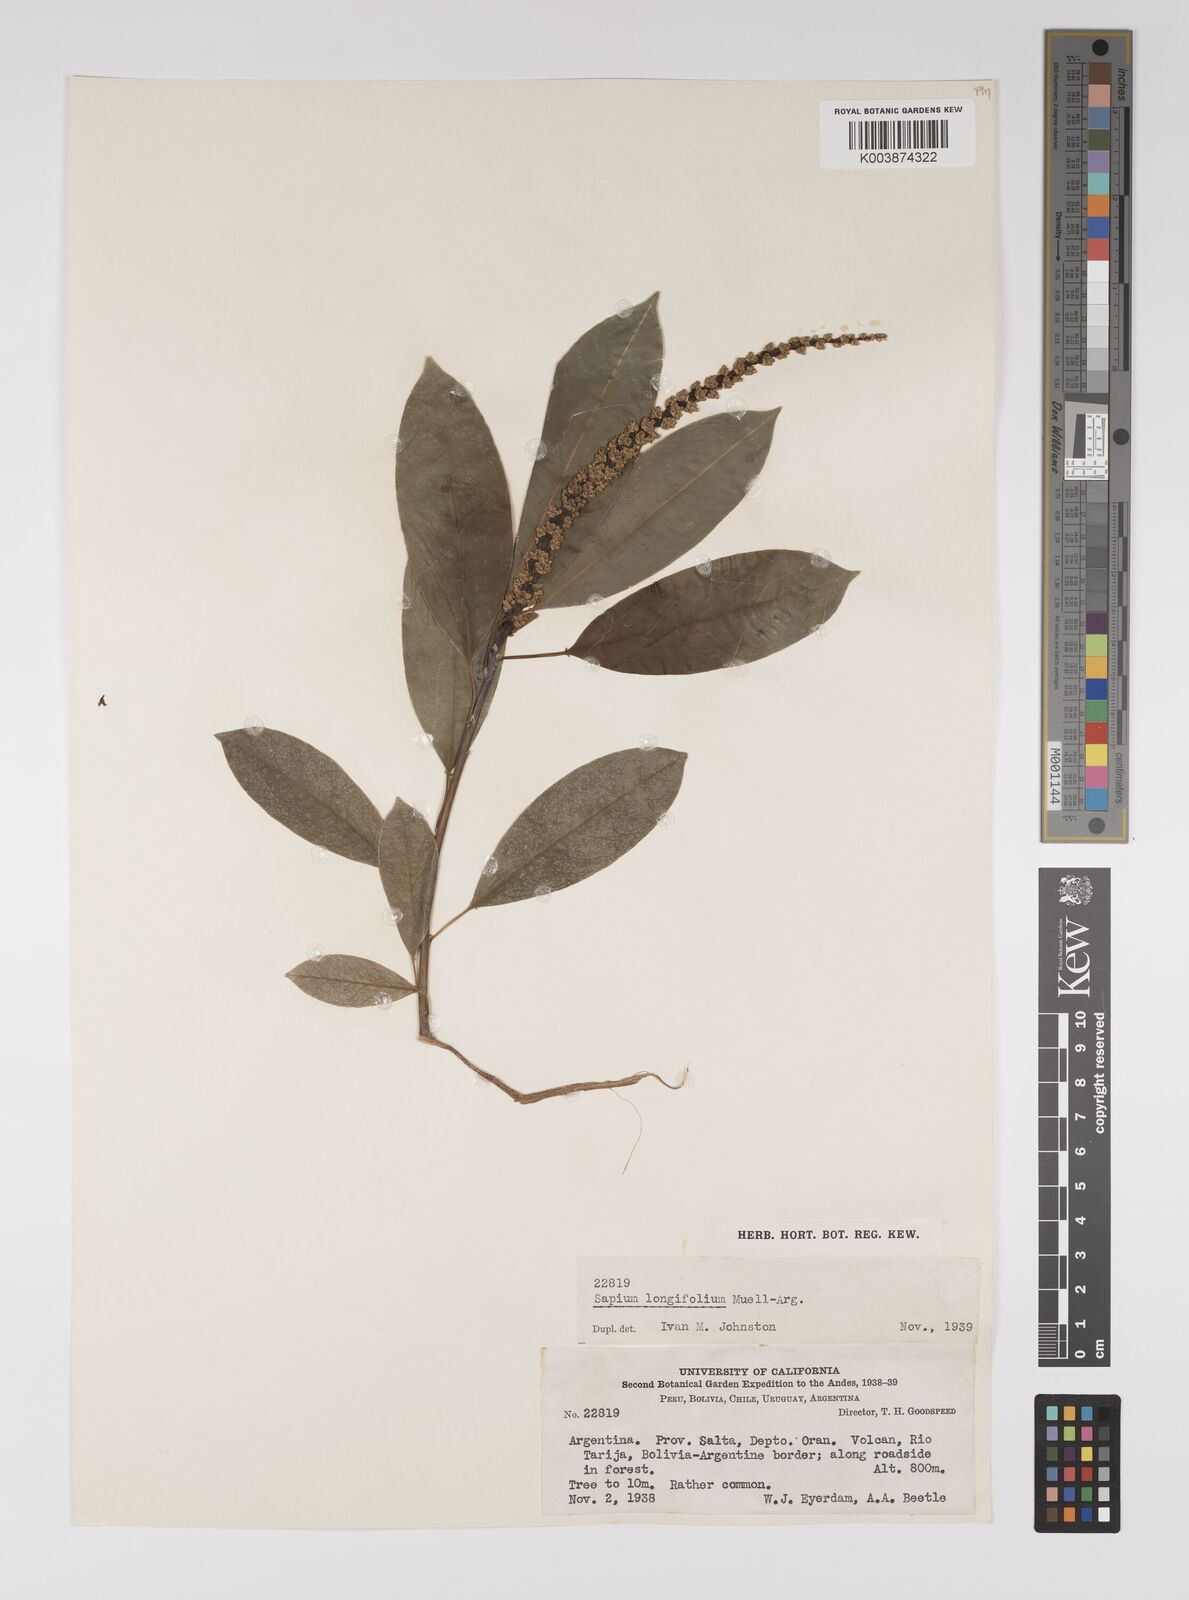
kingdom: Plantae
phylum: Tracheophyta
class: Magnoliopsida
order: Malpighiales
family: Euphorbiaceae
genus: Sapium
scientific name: Sapium haematospermum
